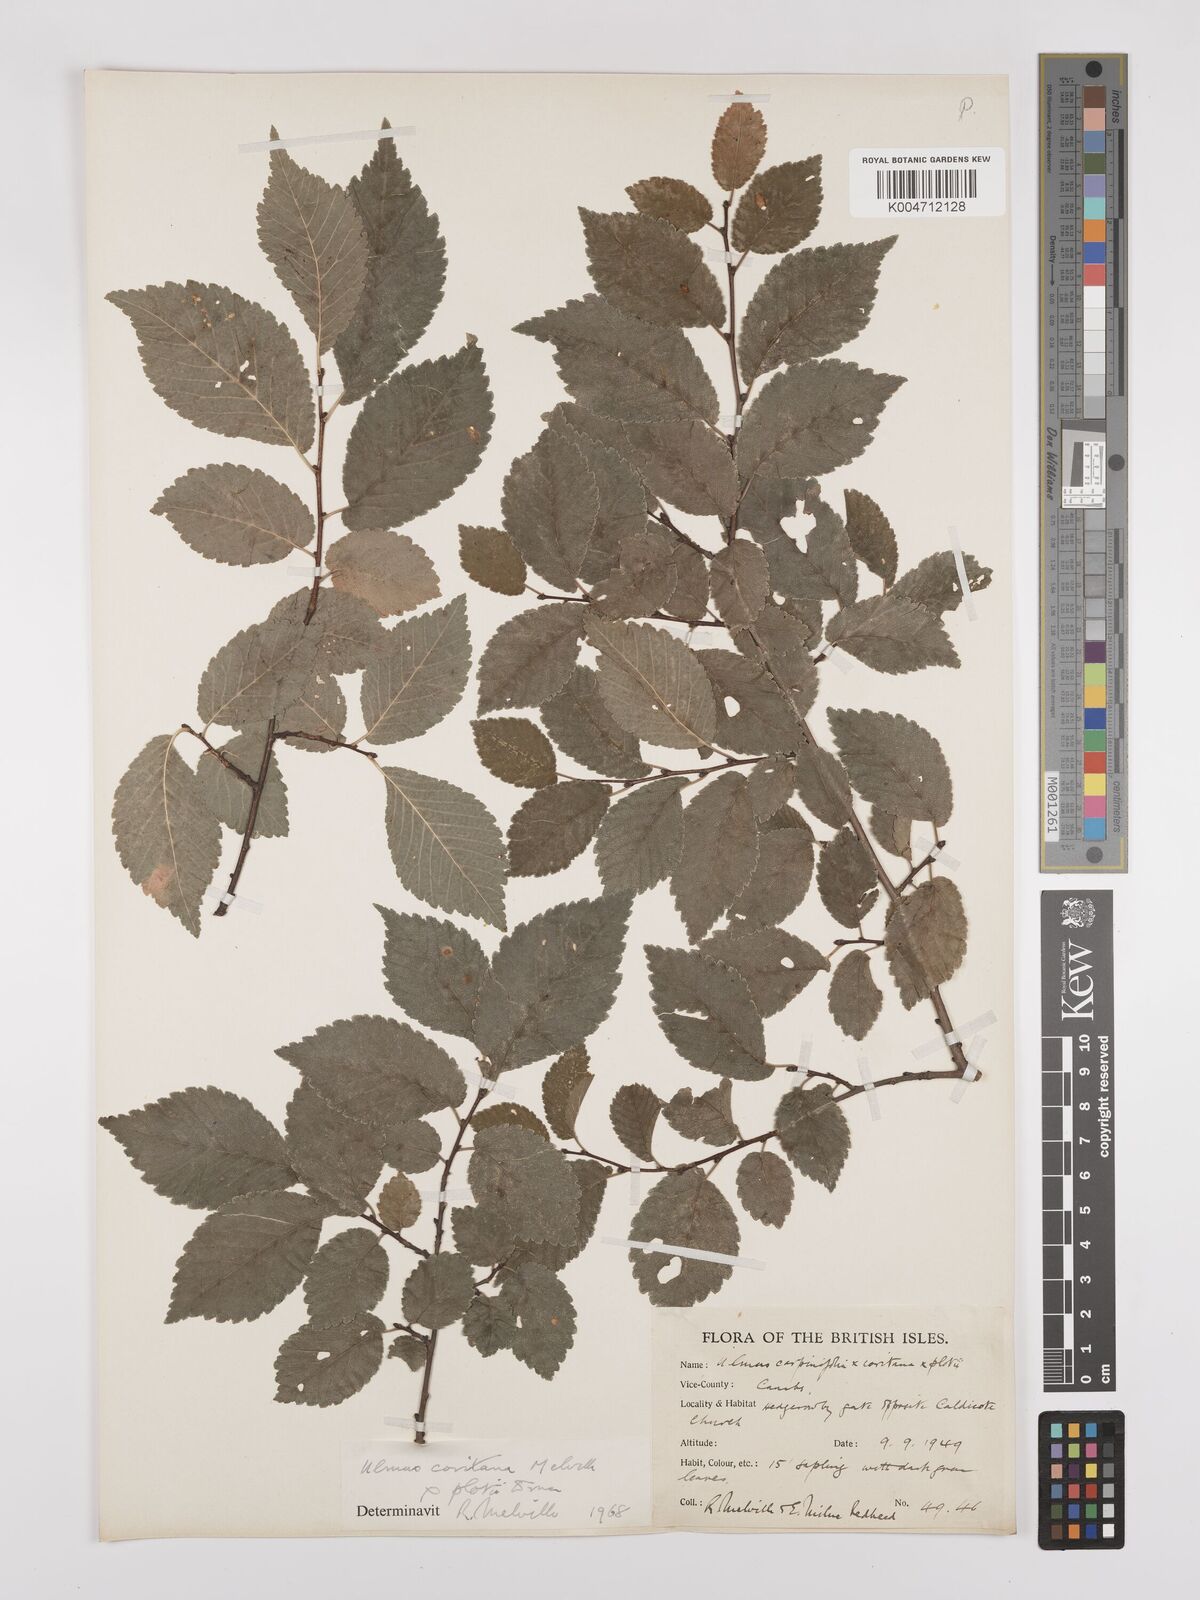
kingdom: Plantae
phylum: Tracheophyta
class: Magnoliopsida
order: Rosales
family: Ulmaceae
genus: Ulmus
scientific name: Ulmus minor
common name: Small-leaved elm
